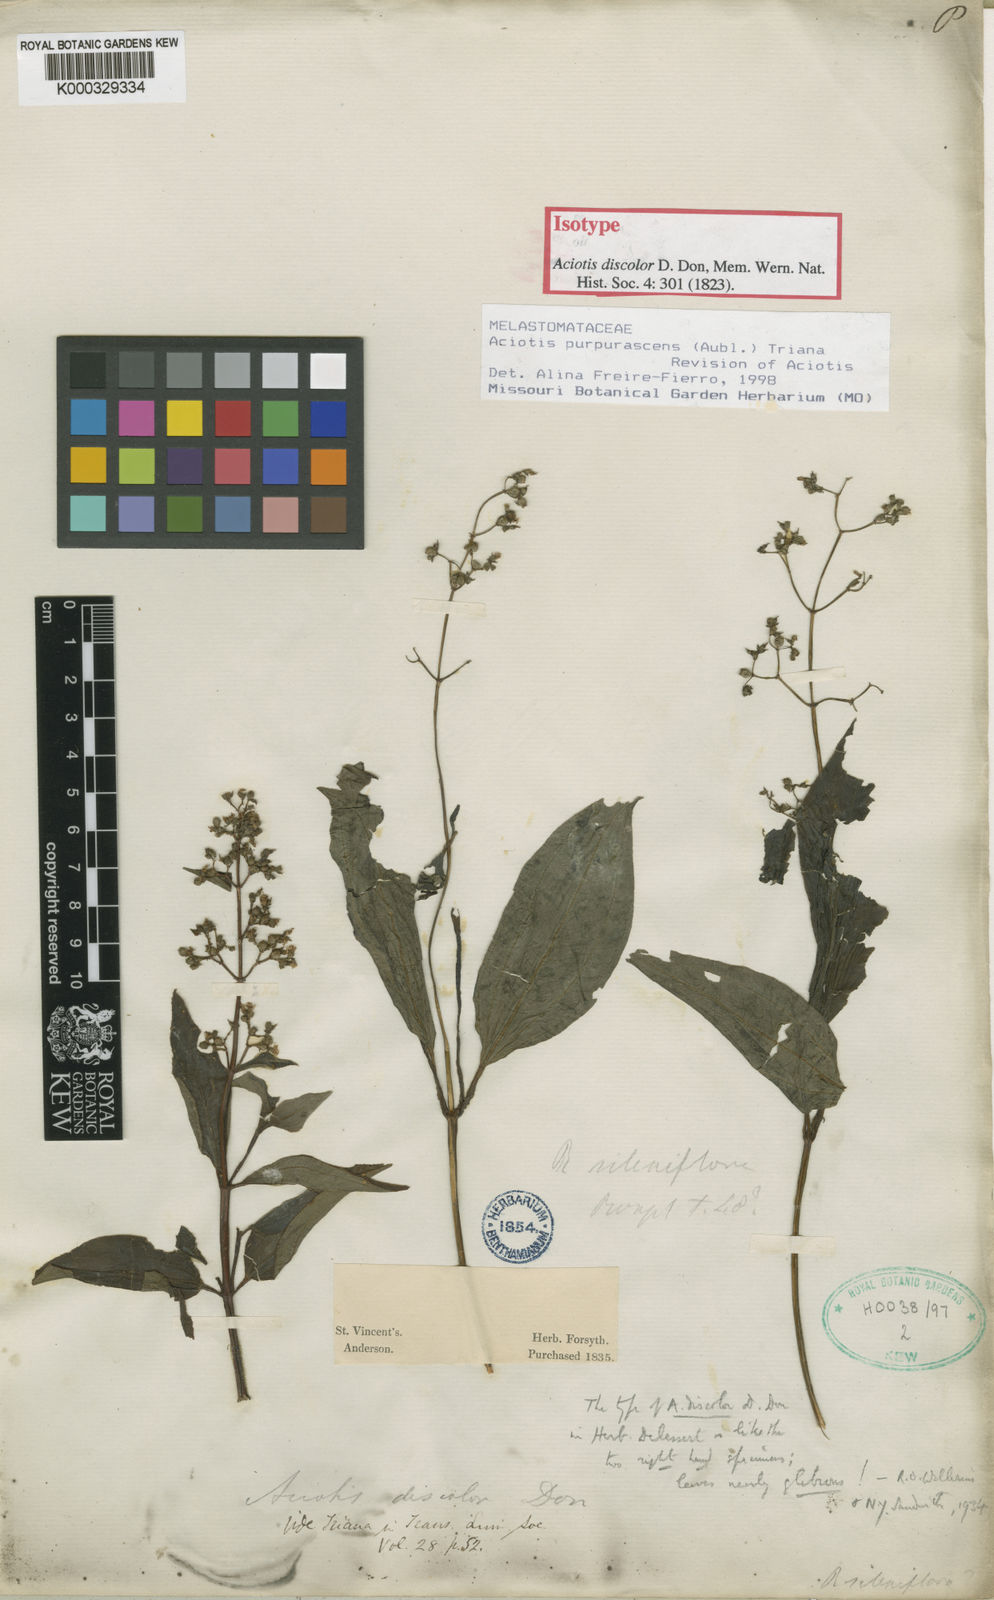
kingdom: Plantae
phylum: Tracheophyta
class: Magnoliopsida
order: Myrtales
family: Melastomataceae
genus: Aciotis
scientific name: Aciotis purpurascens
